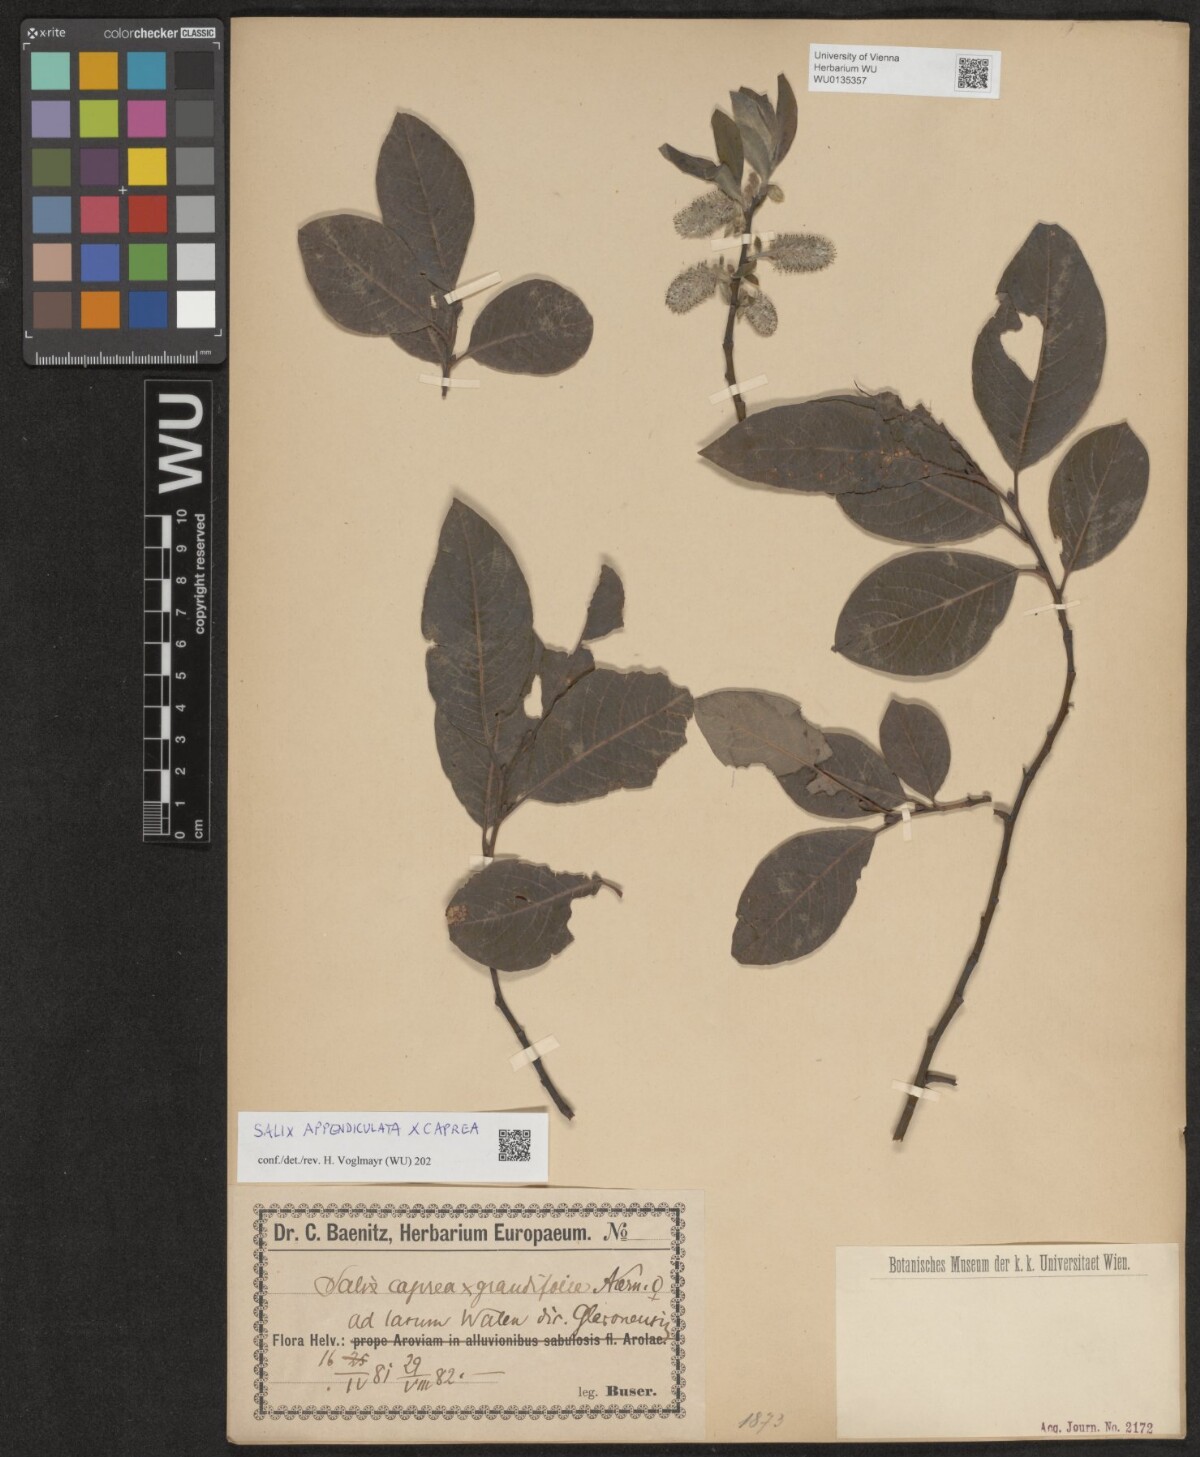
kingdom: Plantae
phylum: Tracheophyta
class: Magnoliopsida
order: Malpighiales
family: Salicaceae
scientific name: Salicaceae
